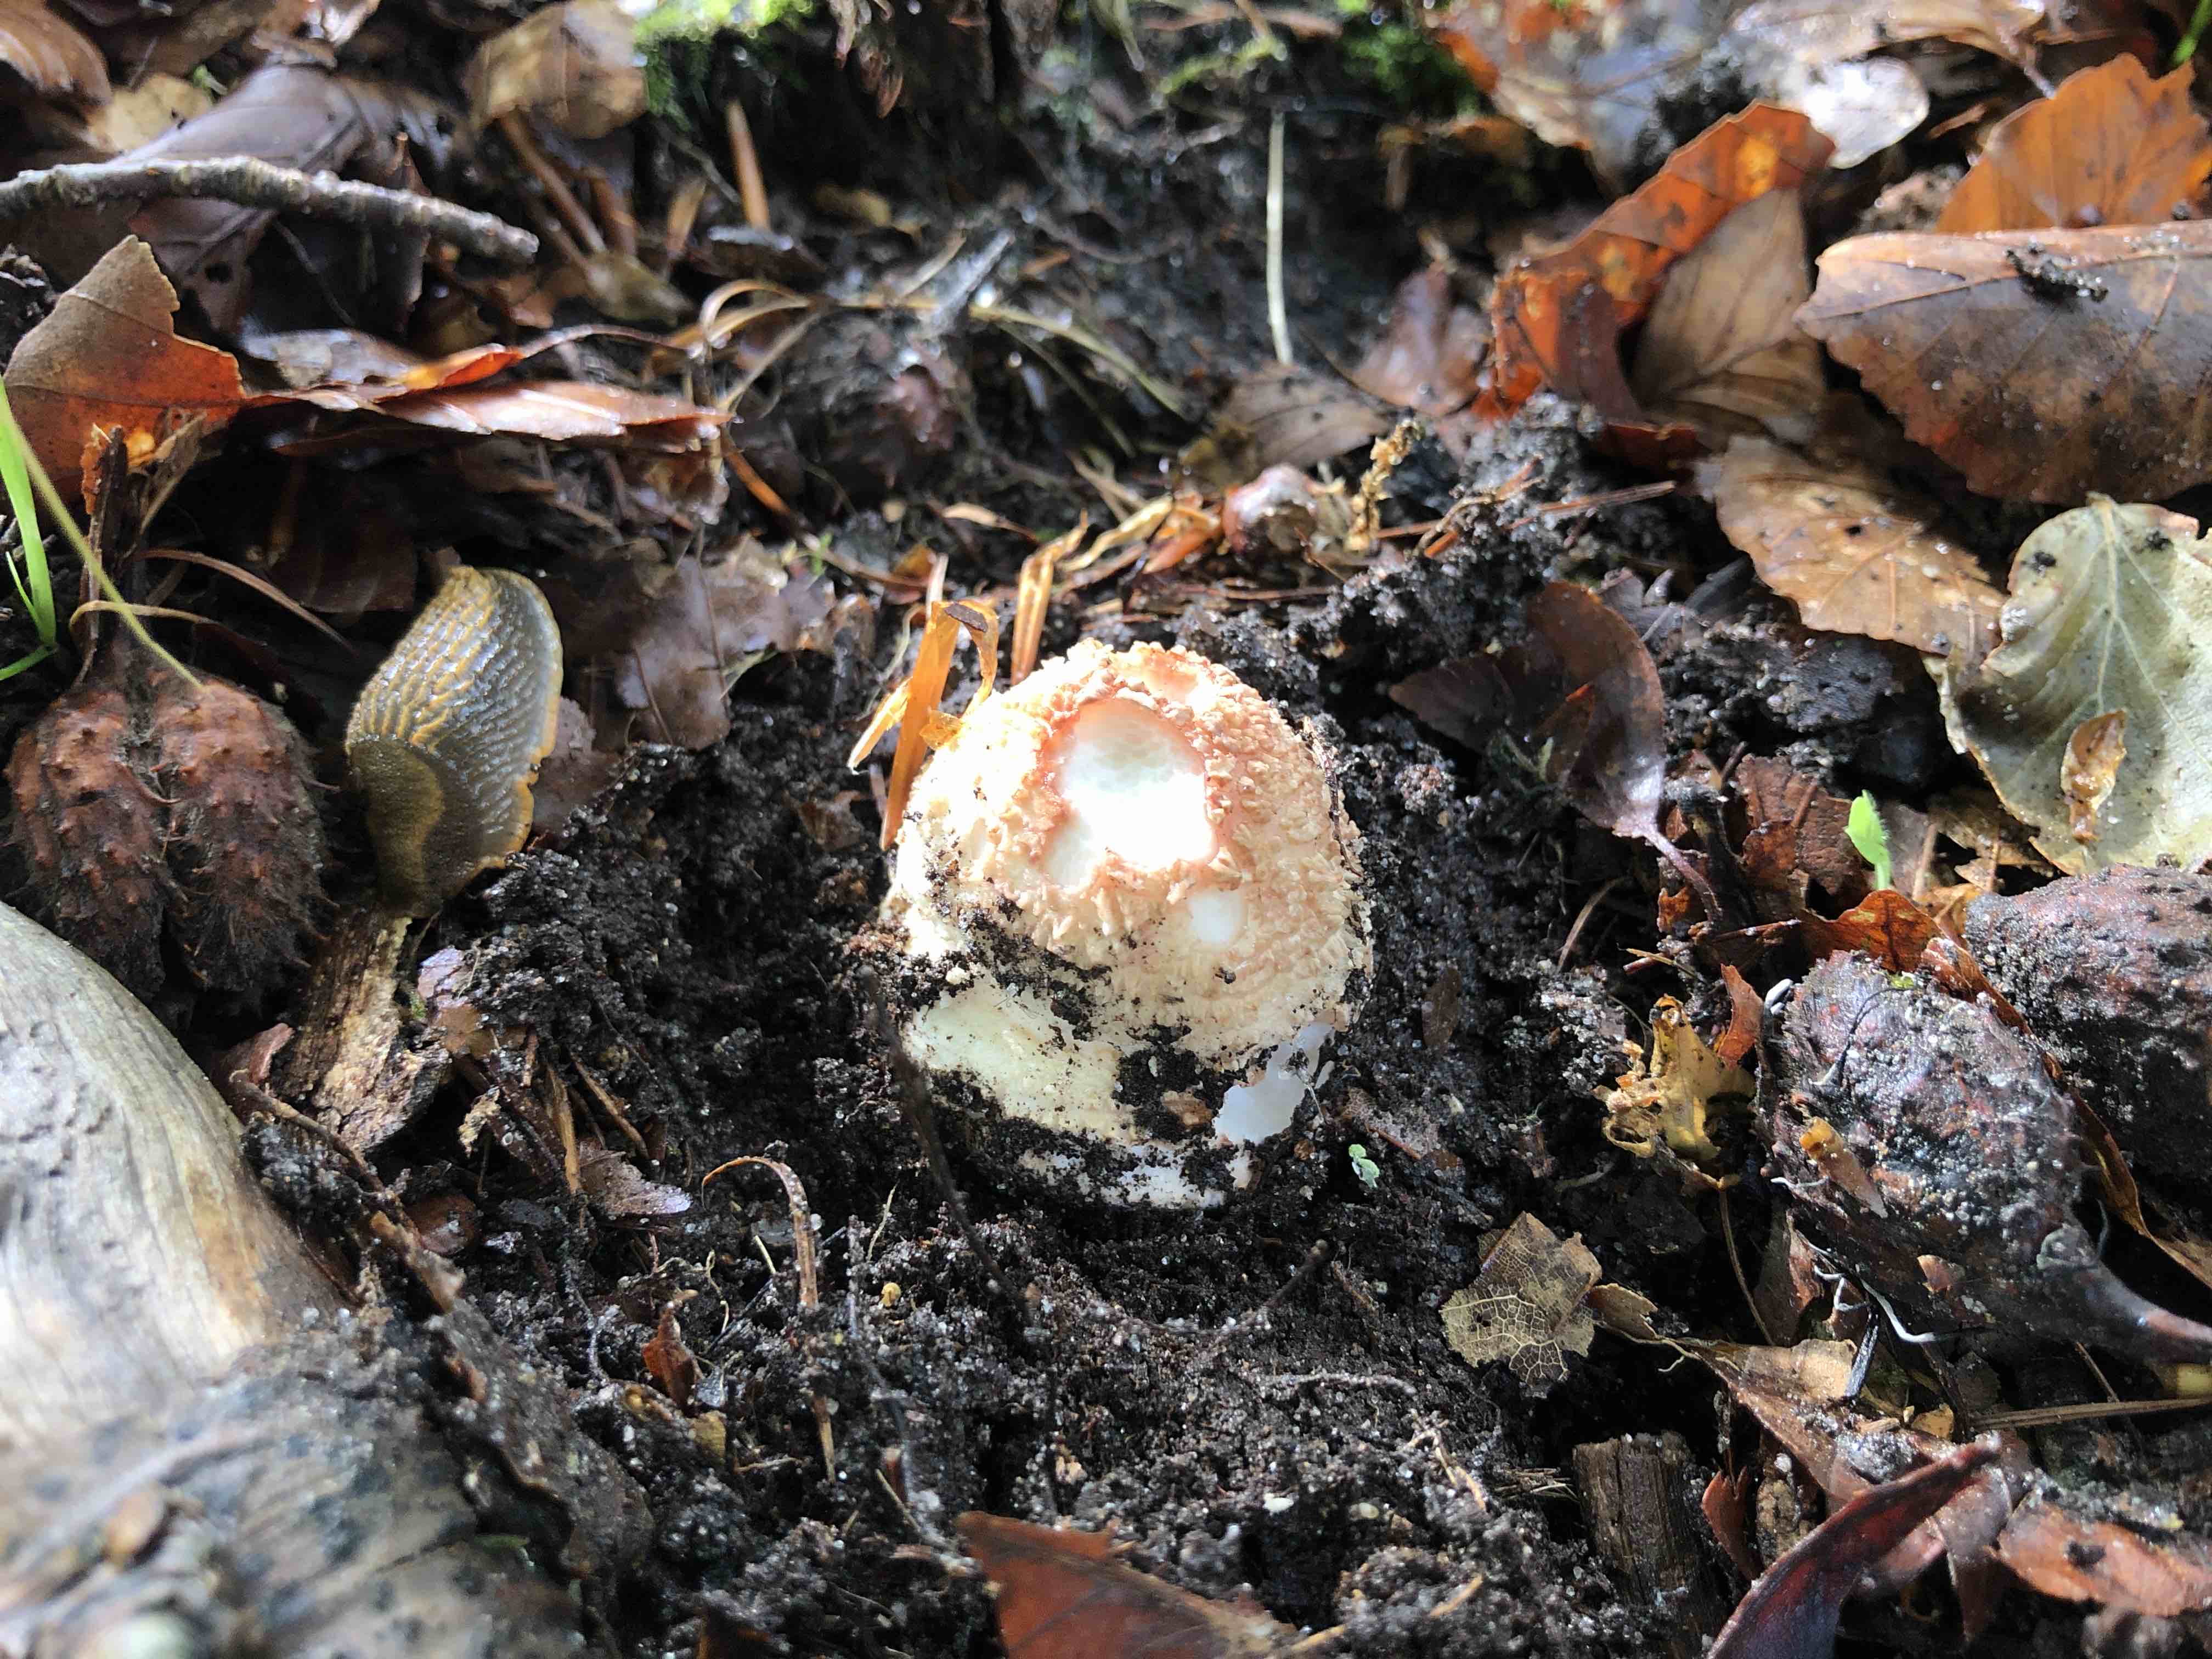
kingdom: Fungi
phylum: Basidiomycota
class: Agaricomycetes
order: Agaricales
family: Amanitaceae
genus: Amanita
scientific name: Amanita rubescens
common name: rødmende fluesvamp
